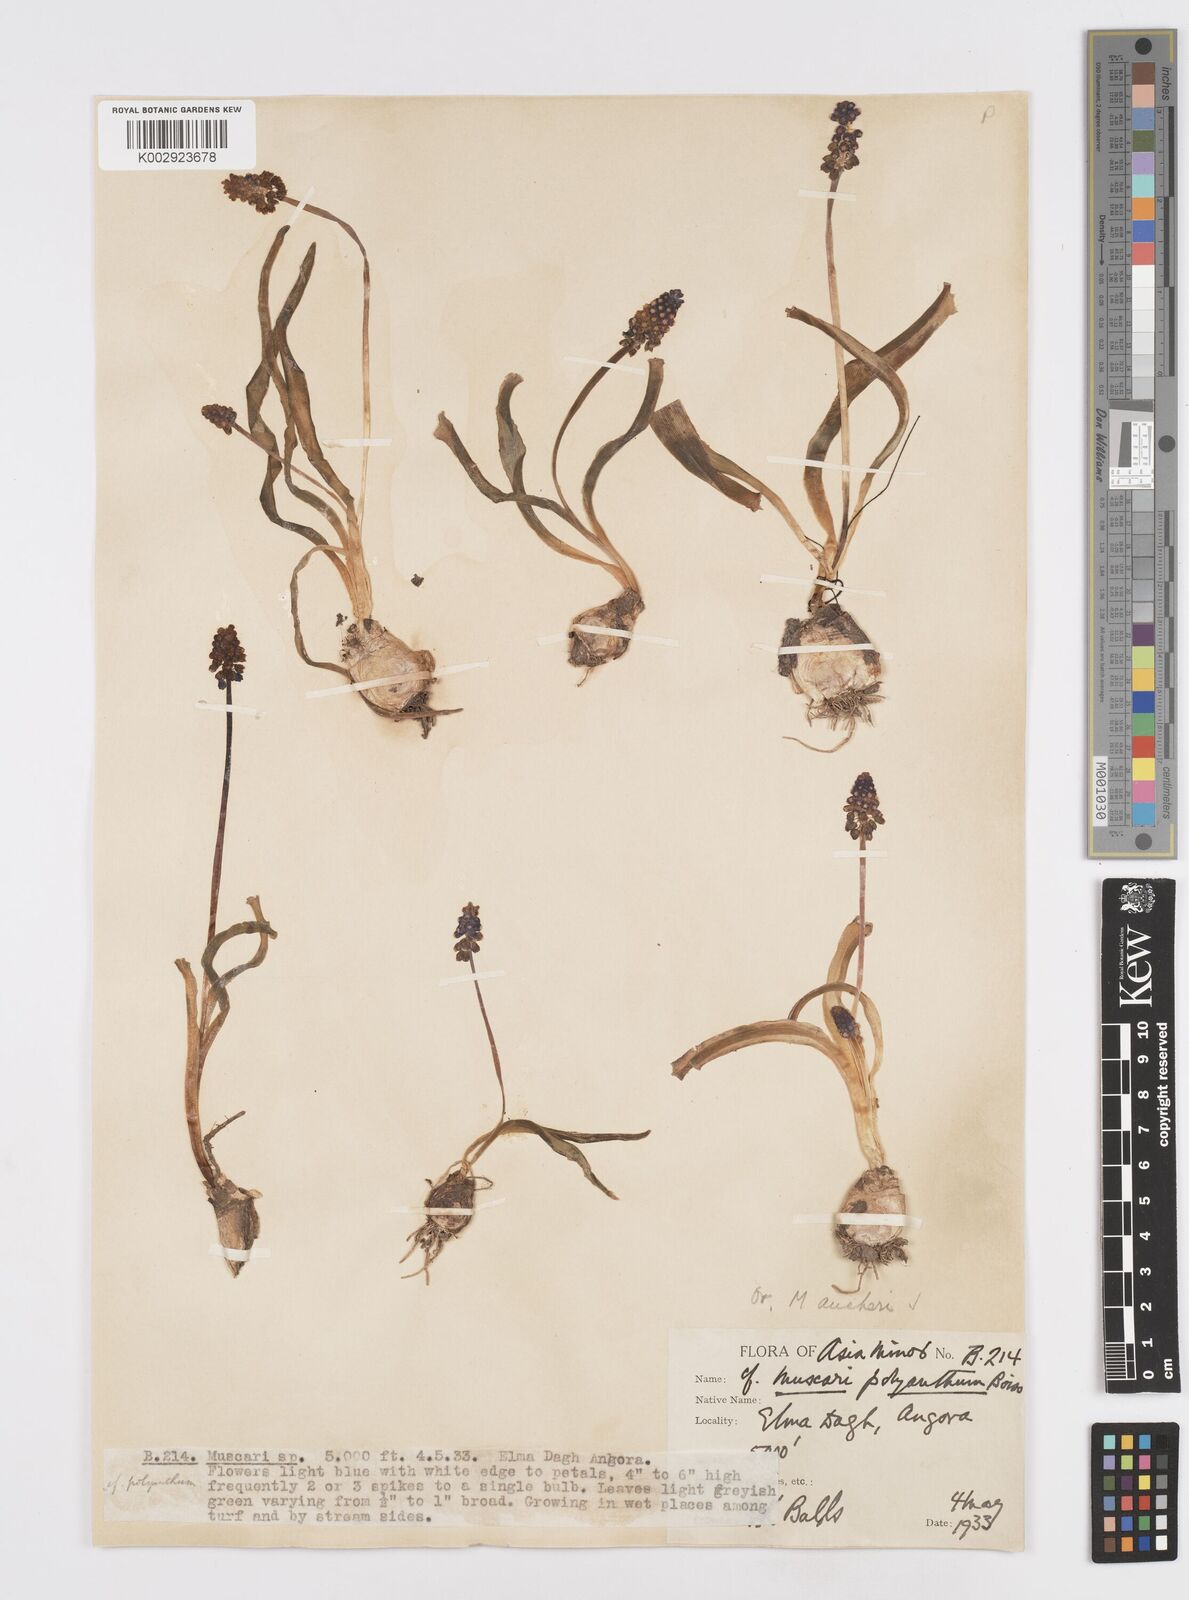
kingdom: Plantae
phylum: Tracheophyta
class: Liliopsida
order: Asparagales
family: Asparagaceae
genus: Muscari
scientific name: Muscari aucheri
